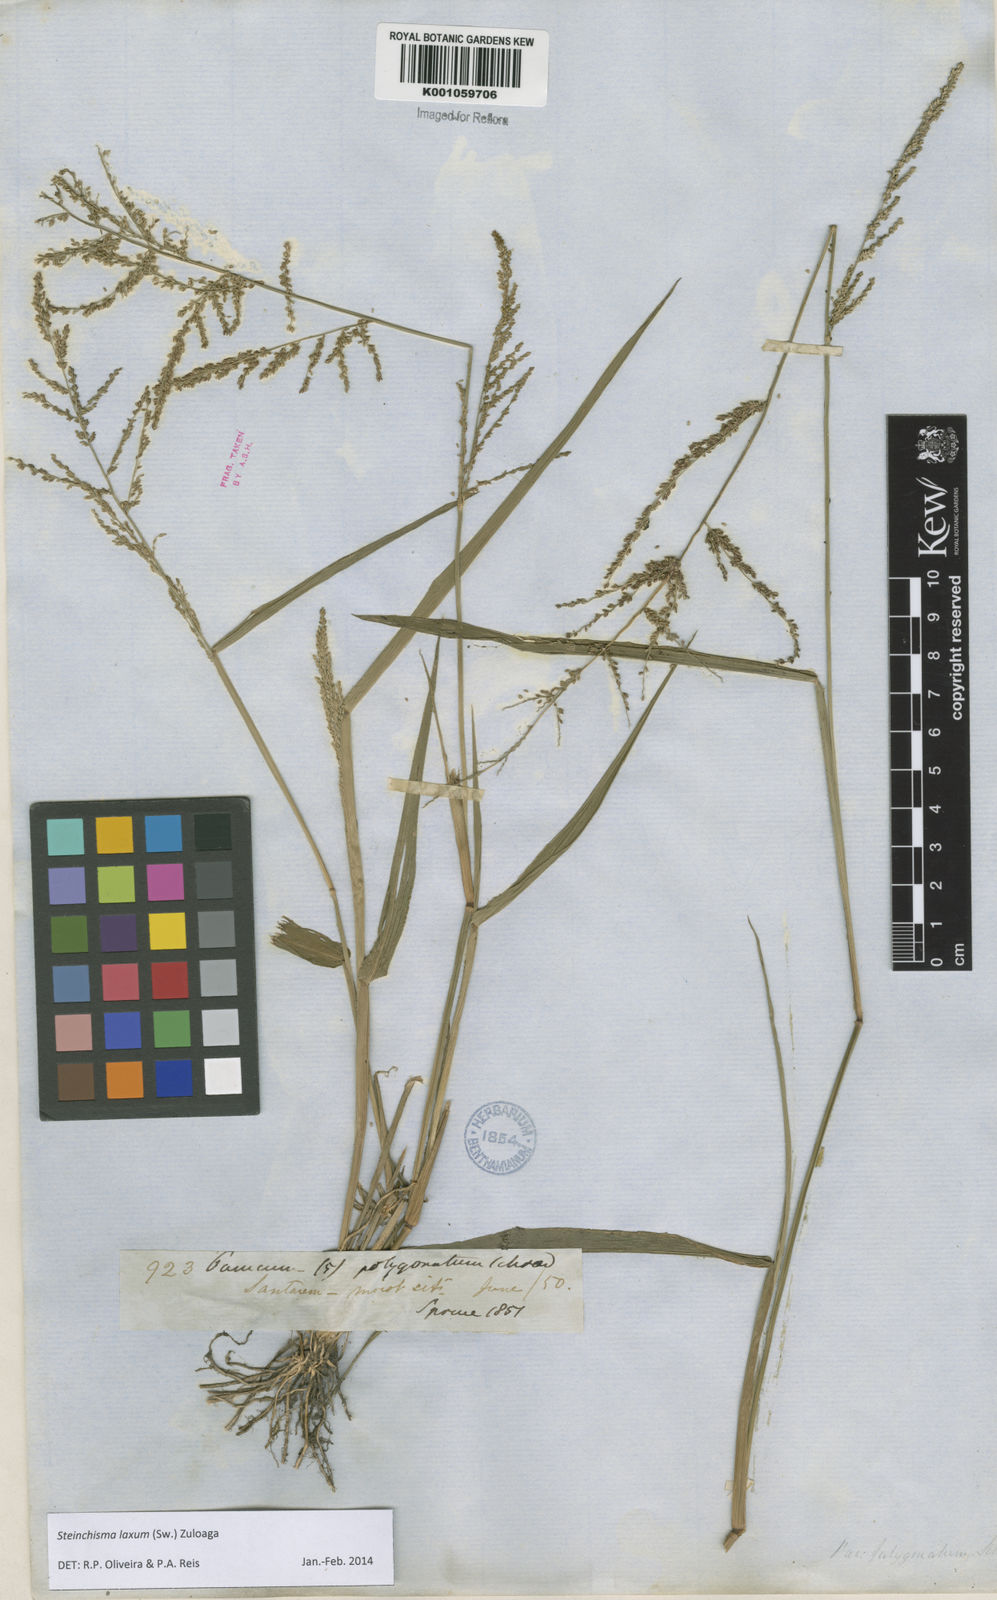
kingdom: Plantae
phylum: Tracheophyta
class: Liliopsida
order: Poales
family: Poaceae
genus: Steinchisma
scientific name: Steinchisma laxum
